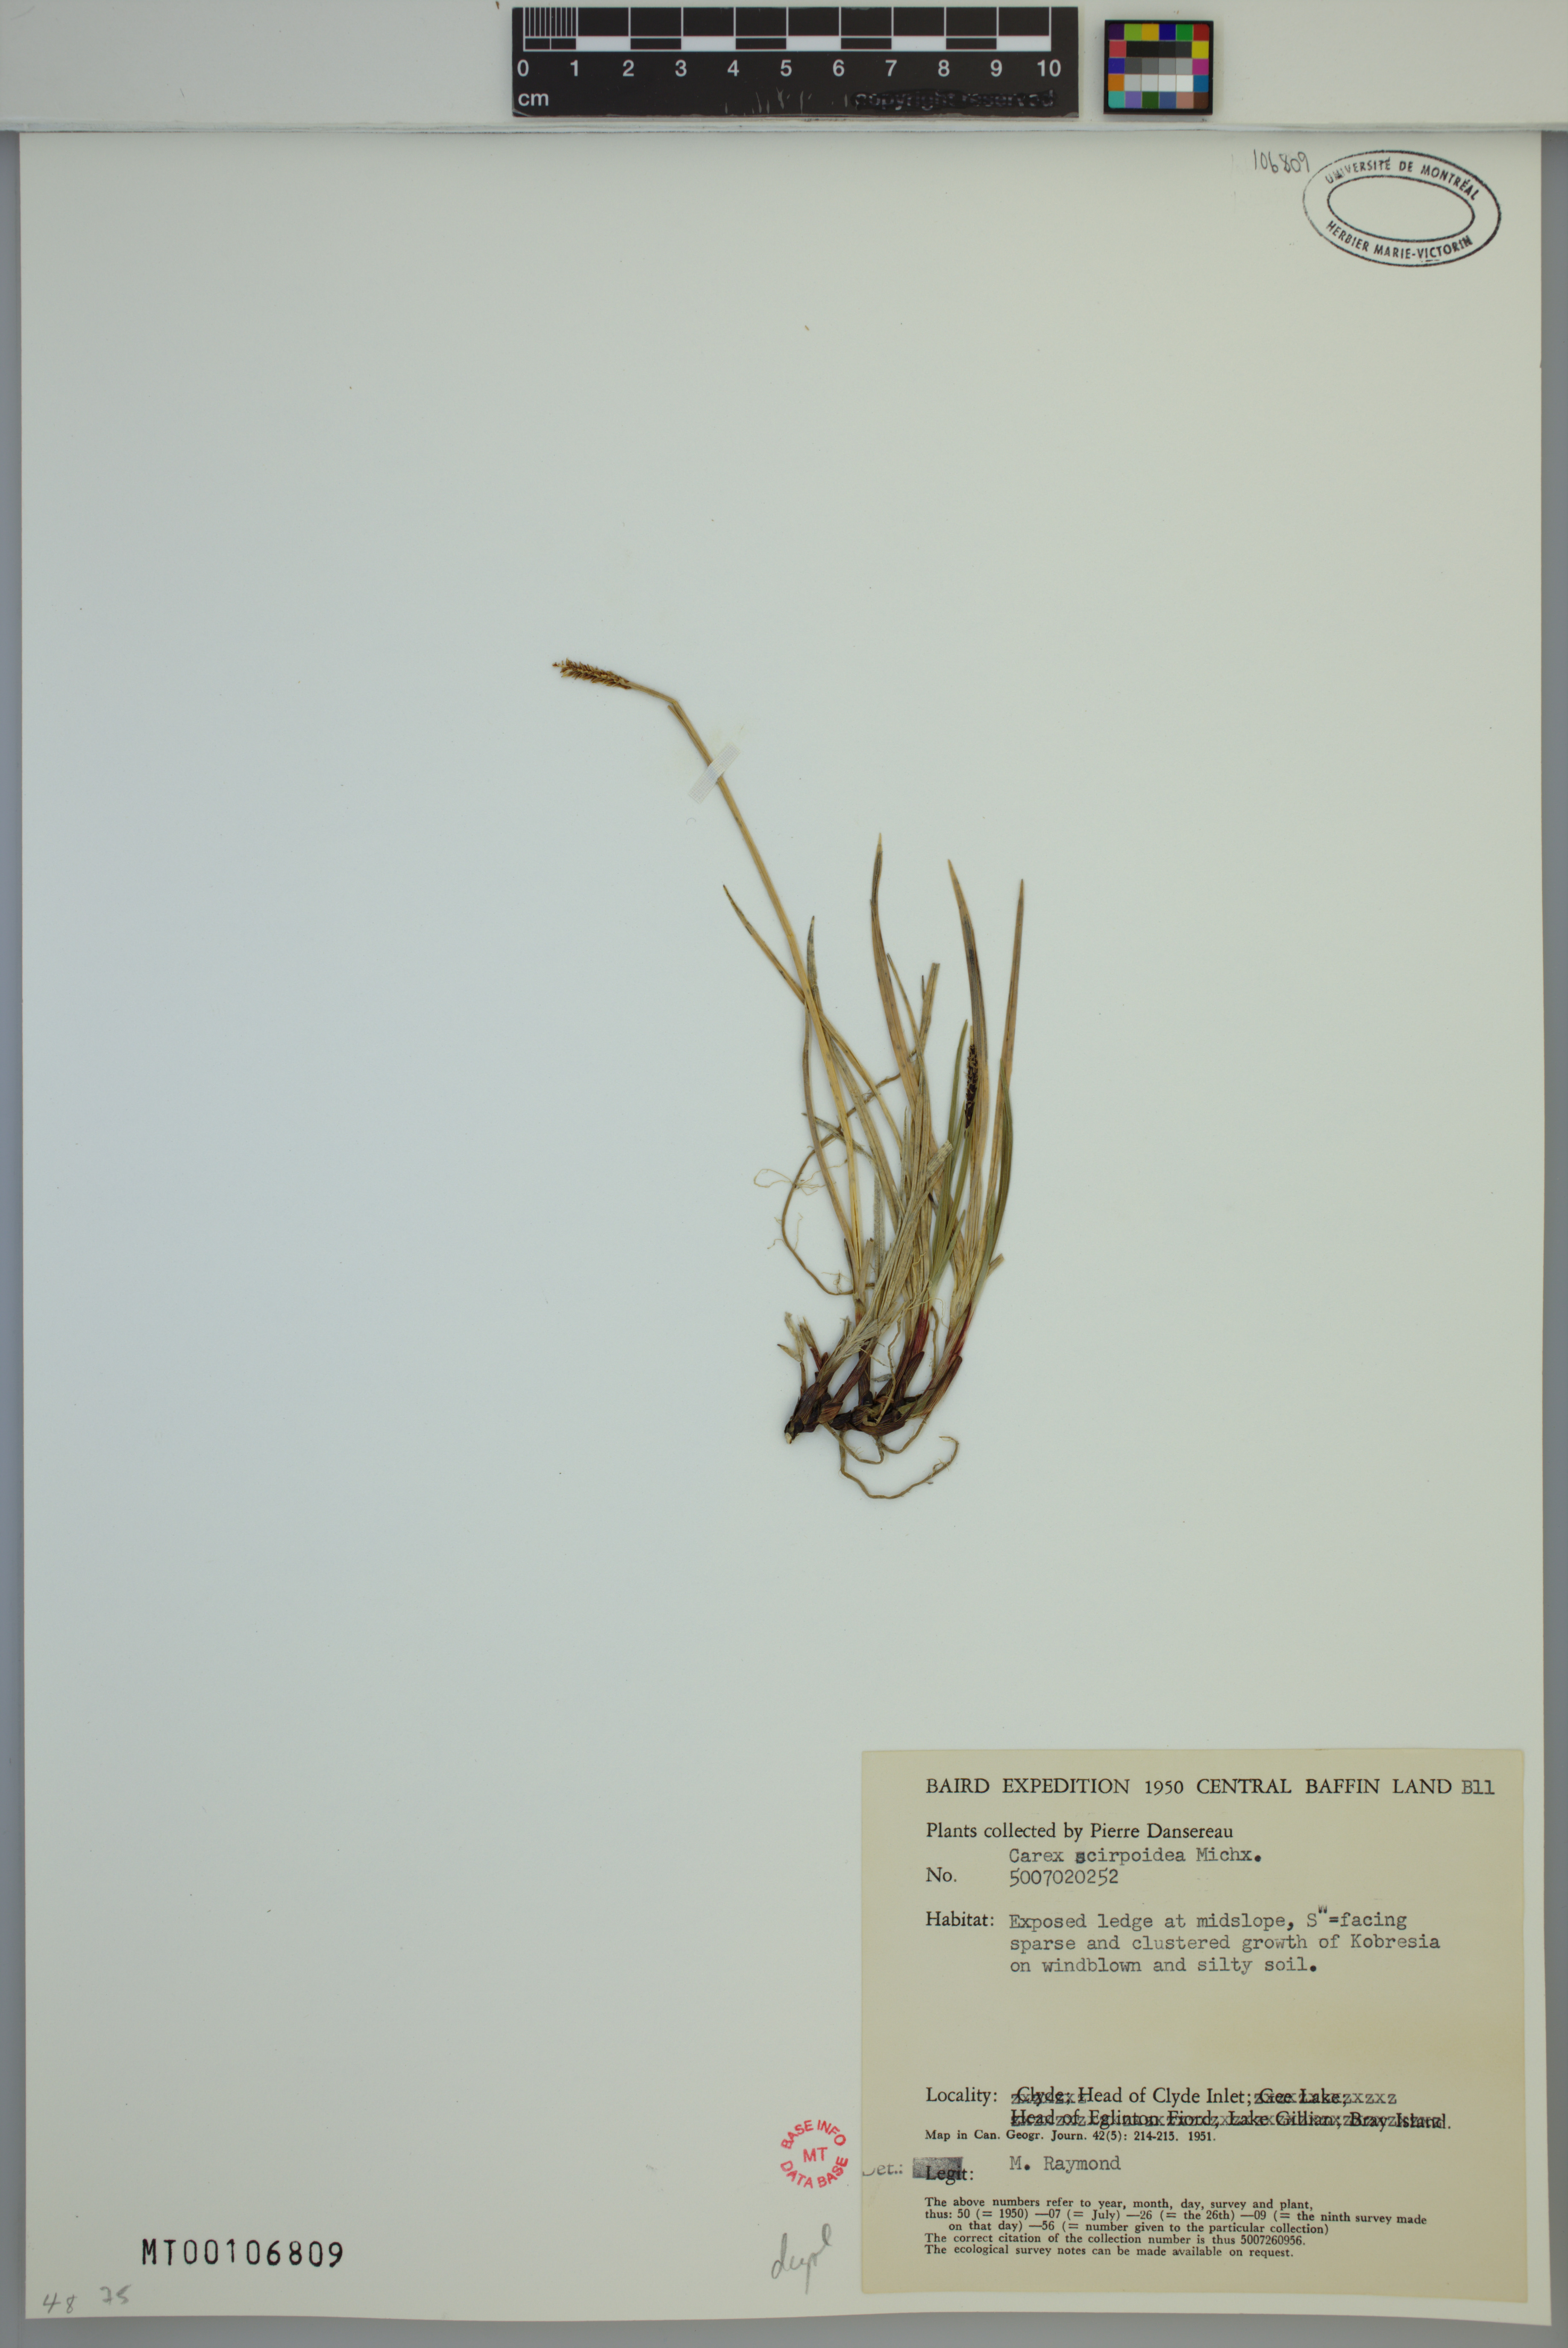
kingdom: Plantae
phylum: Tracheophyta
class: Liliopsida
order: Poales
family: Cyperaceae
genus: Carex
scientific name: Carex scirpoidea
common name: Canada single-spike sedge
